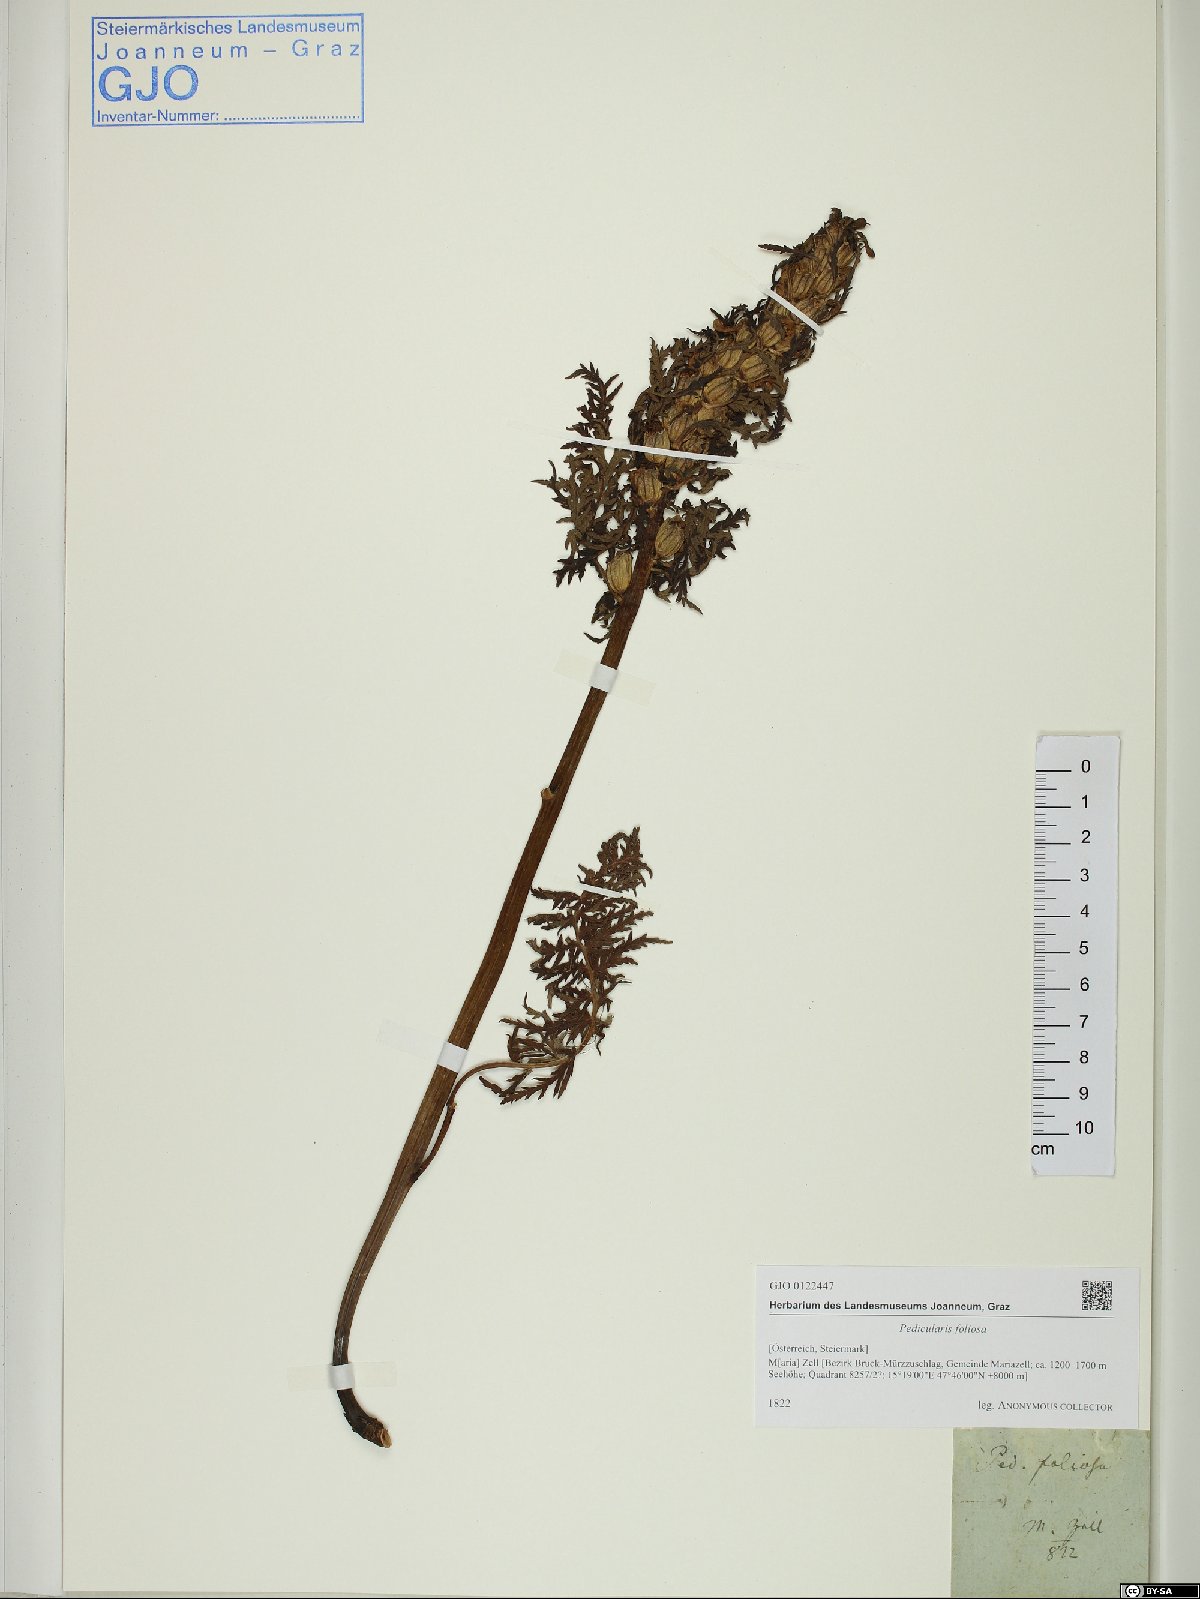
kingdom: Plantae
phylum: Tracheophyta
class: Magnoliopsida
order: Lamiales
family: Orobanchaceae
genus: Pedicularis
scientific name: Pedicularis foliosa
